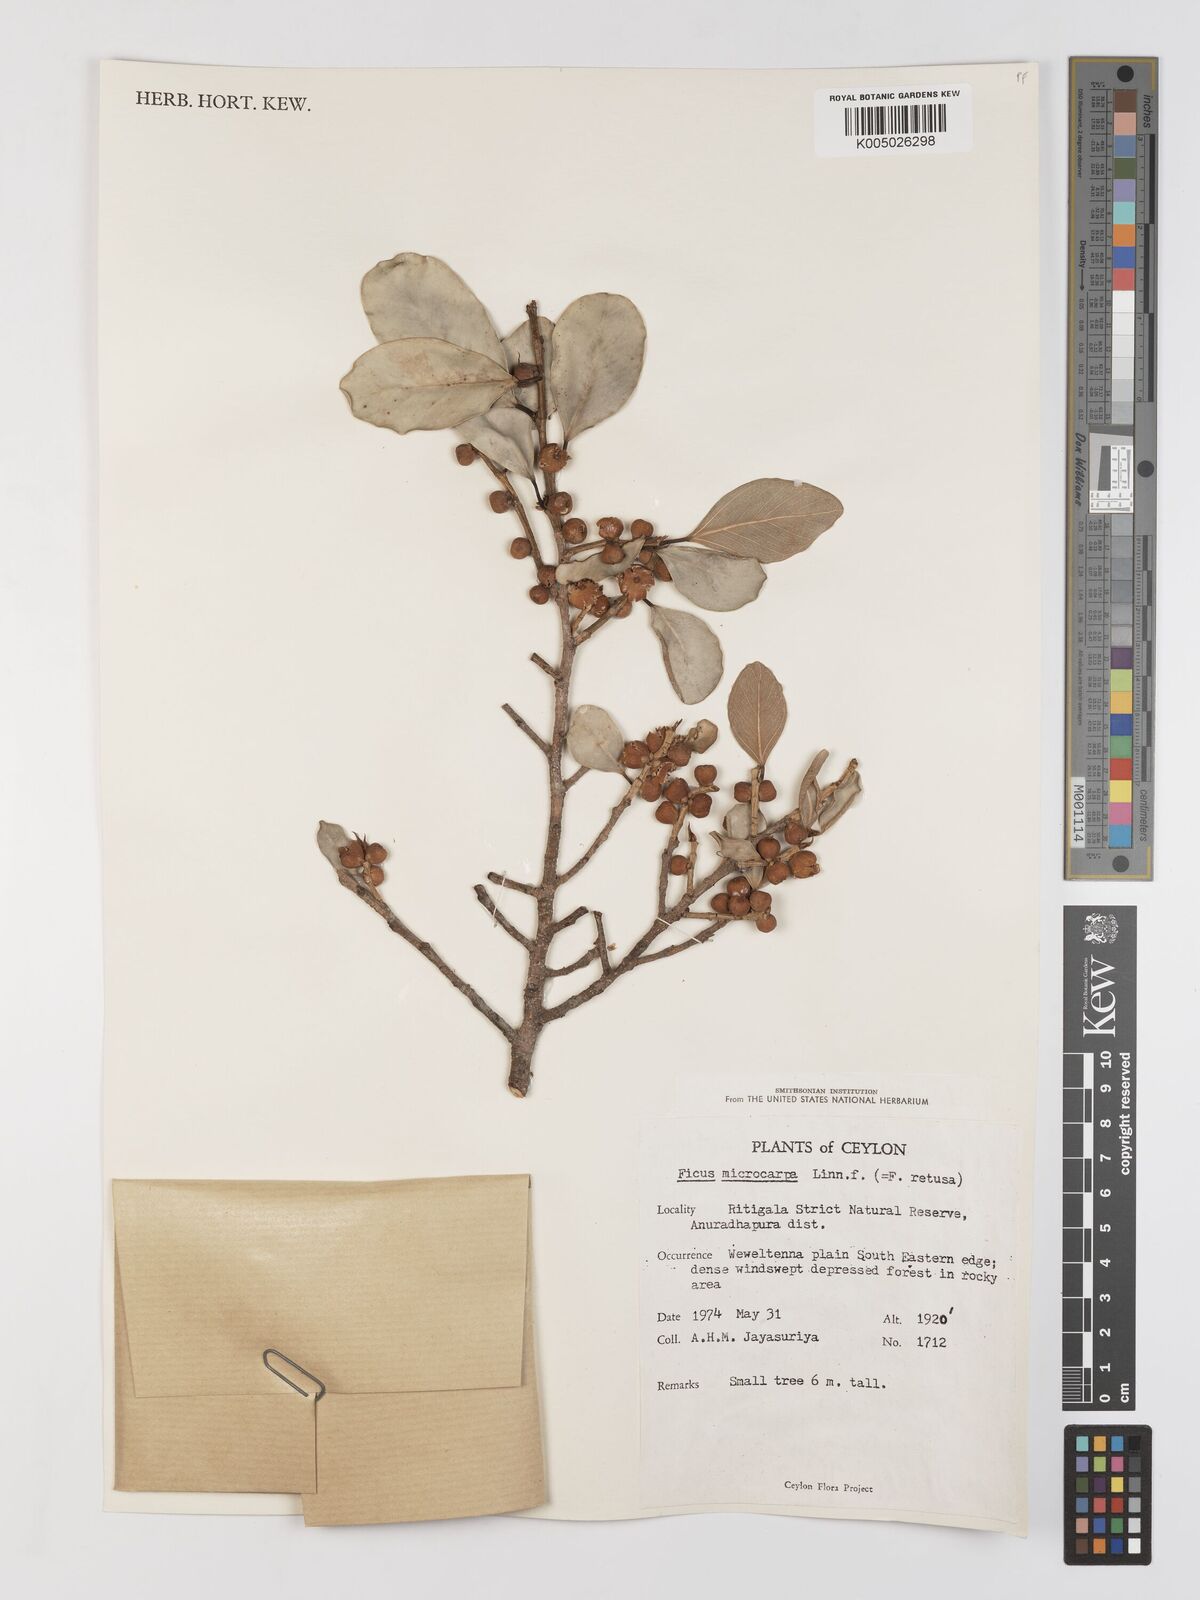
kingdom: Plantae
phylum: Tracheophyta
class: Magnoliopsida
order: Rosales
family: Moraceae
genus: Ficus
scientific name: Ficus
